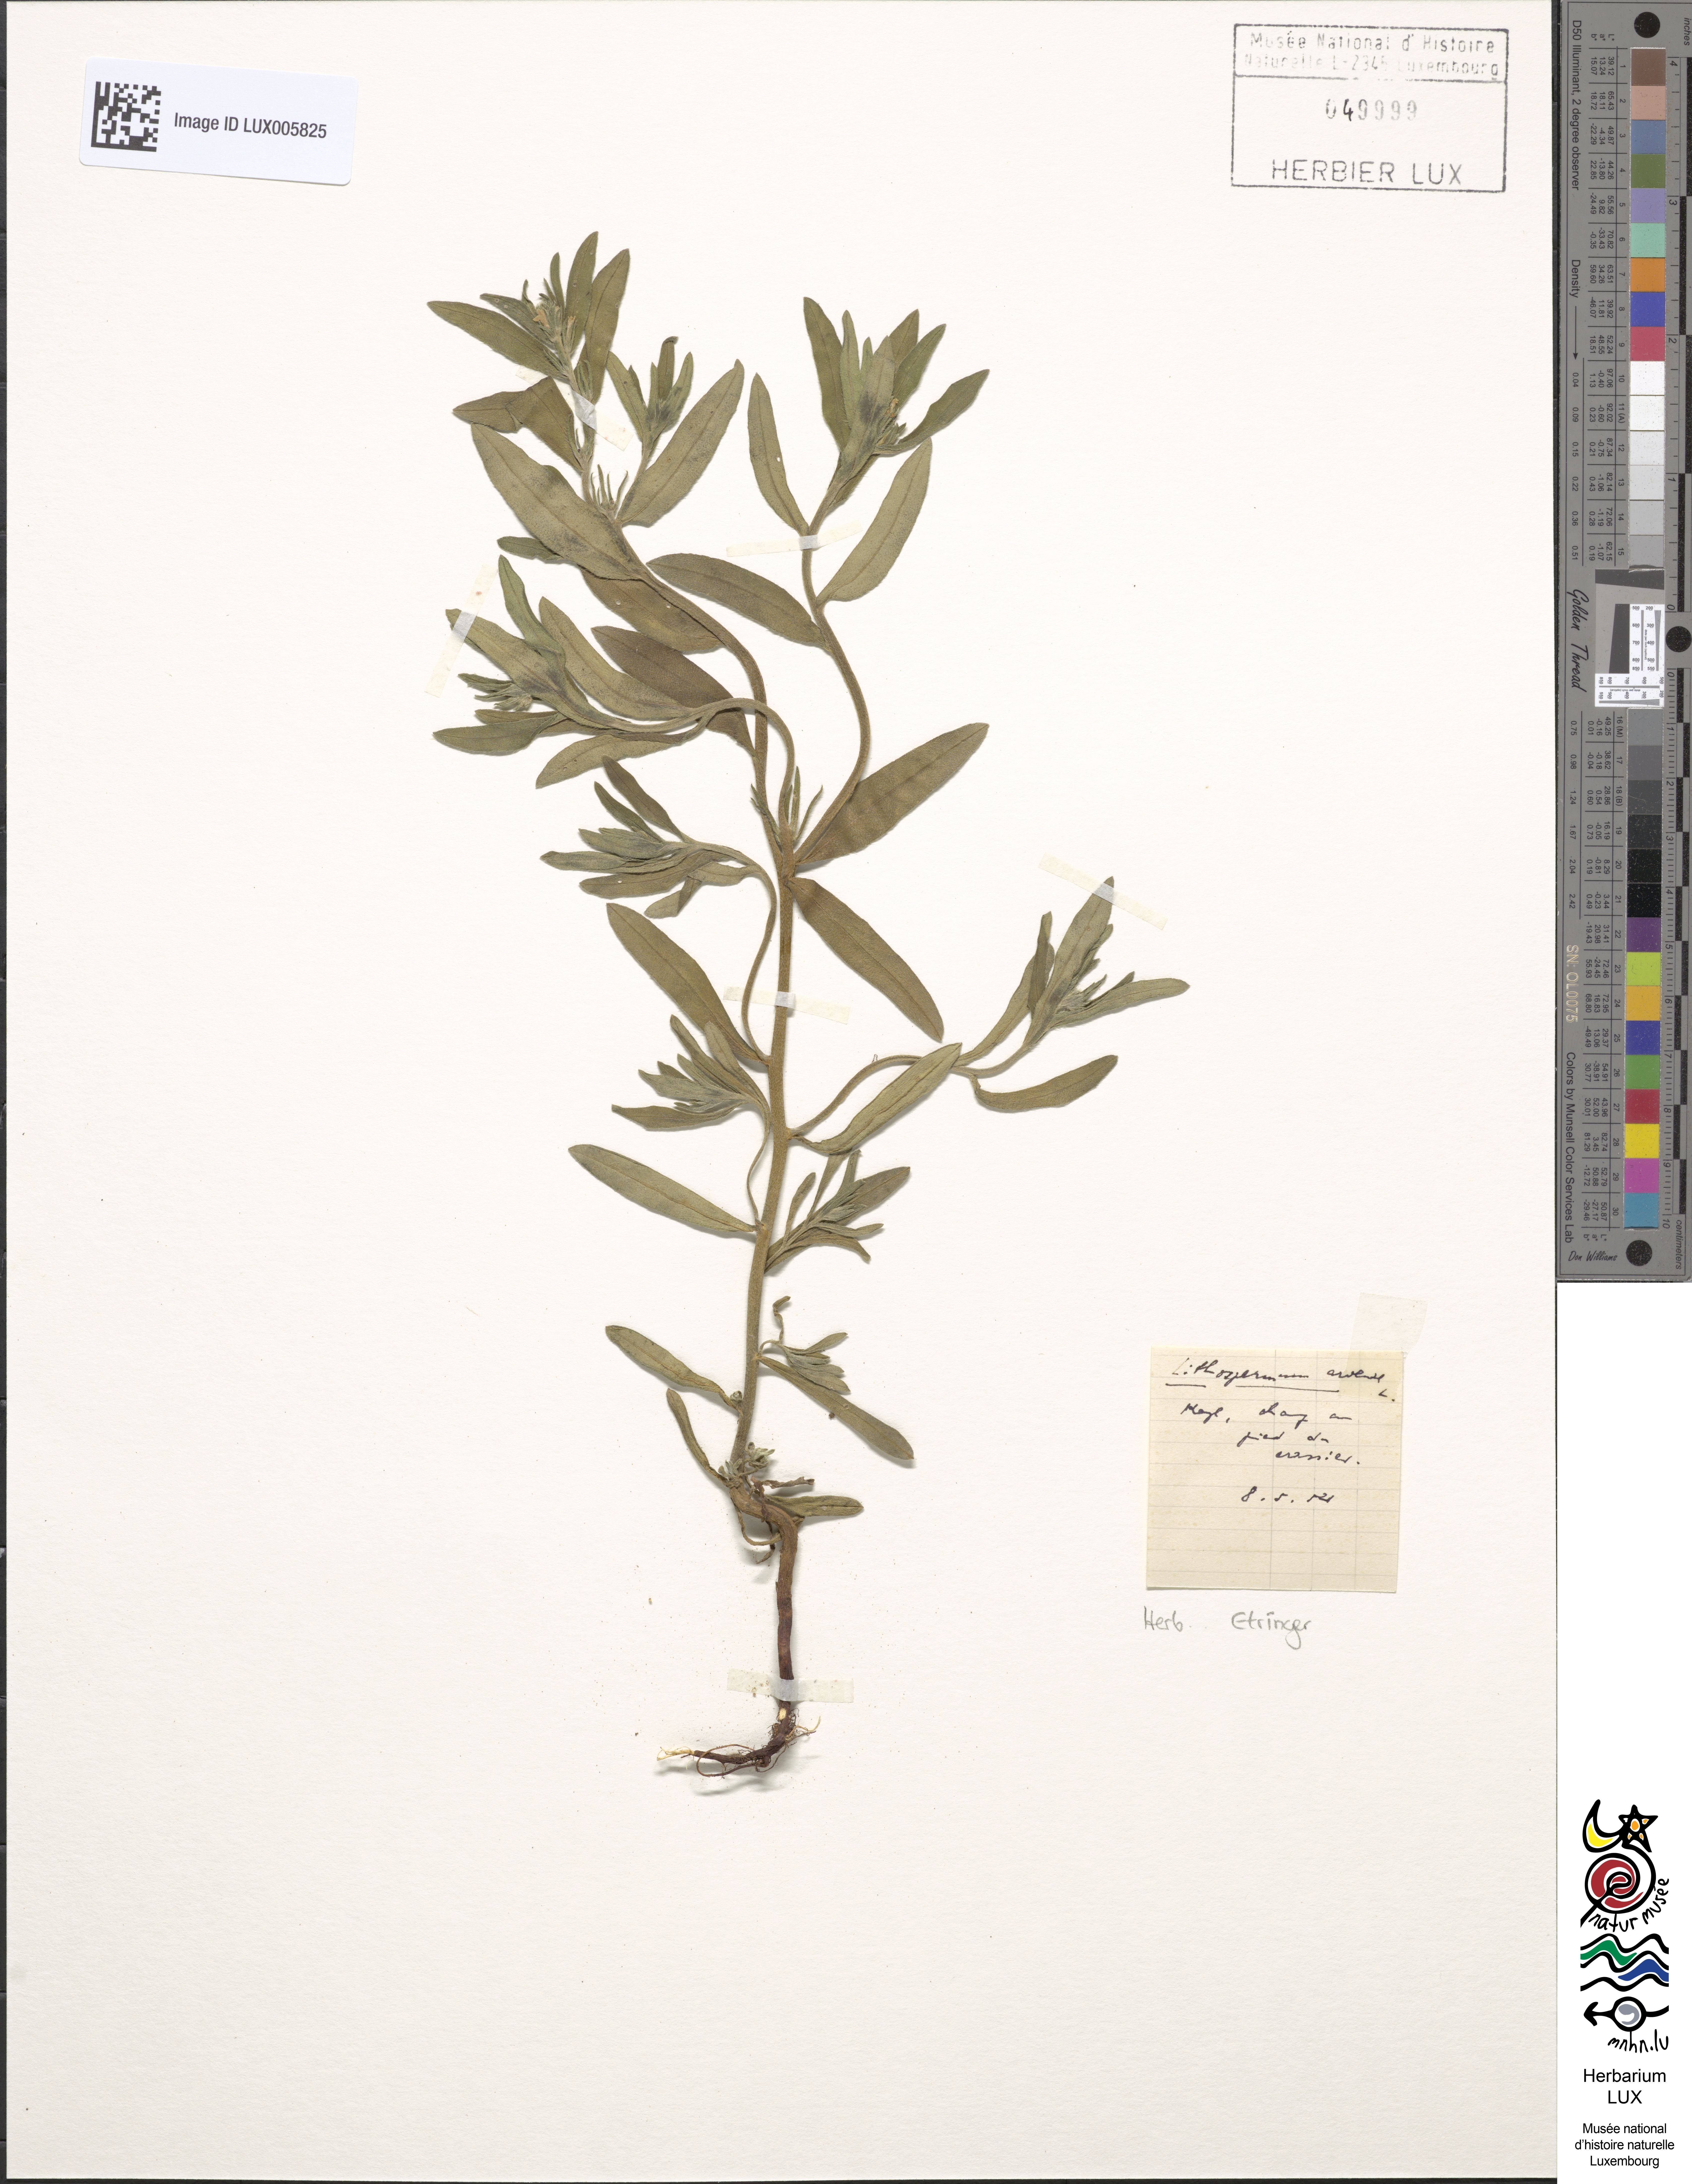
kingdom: Plantae
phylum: Tracheophyta
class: Magnoliopsida
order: Boraginales
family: Boraginaceae
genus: Buglossoides
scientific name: Buglossoides arvensis
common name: Corn gromwell
